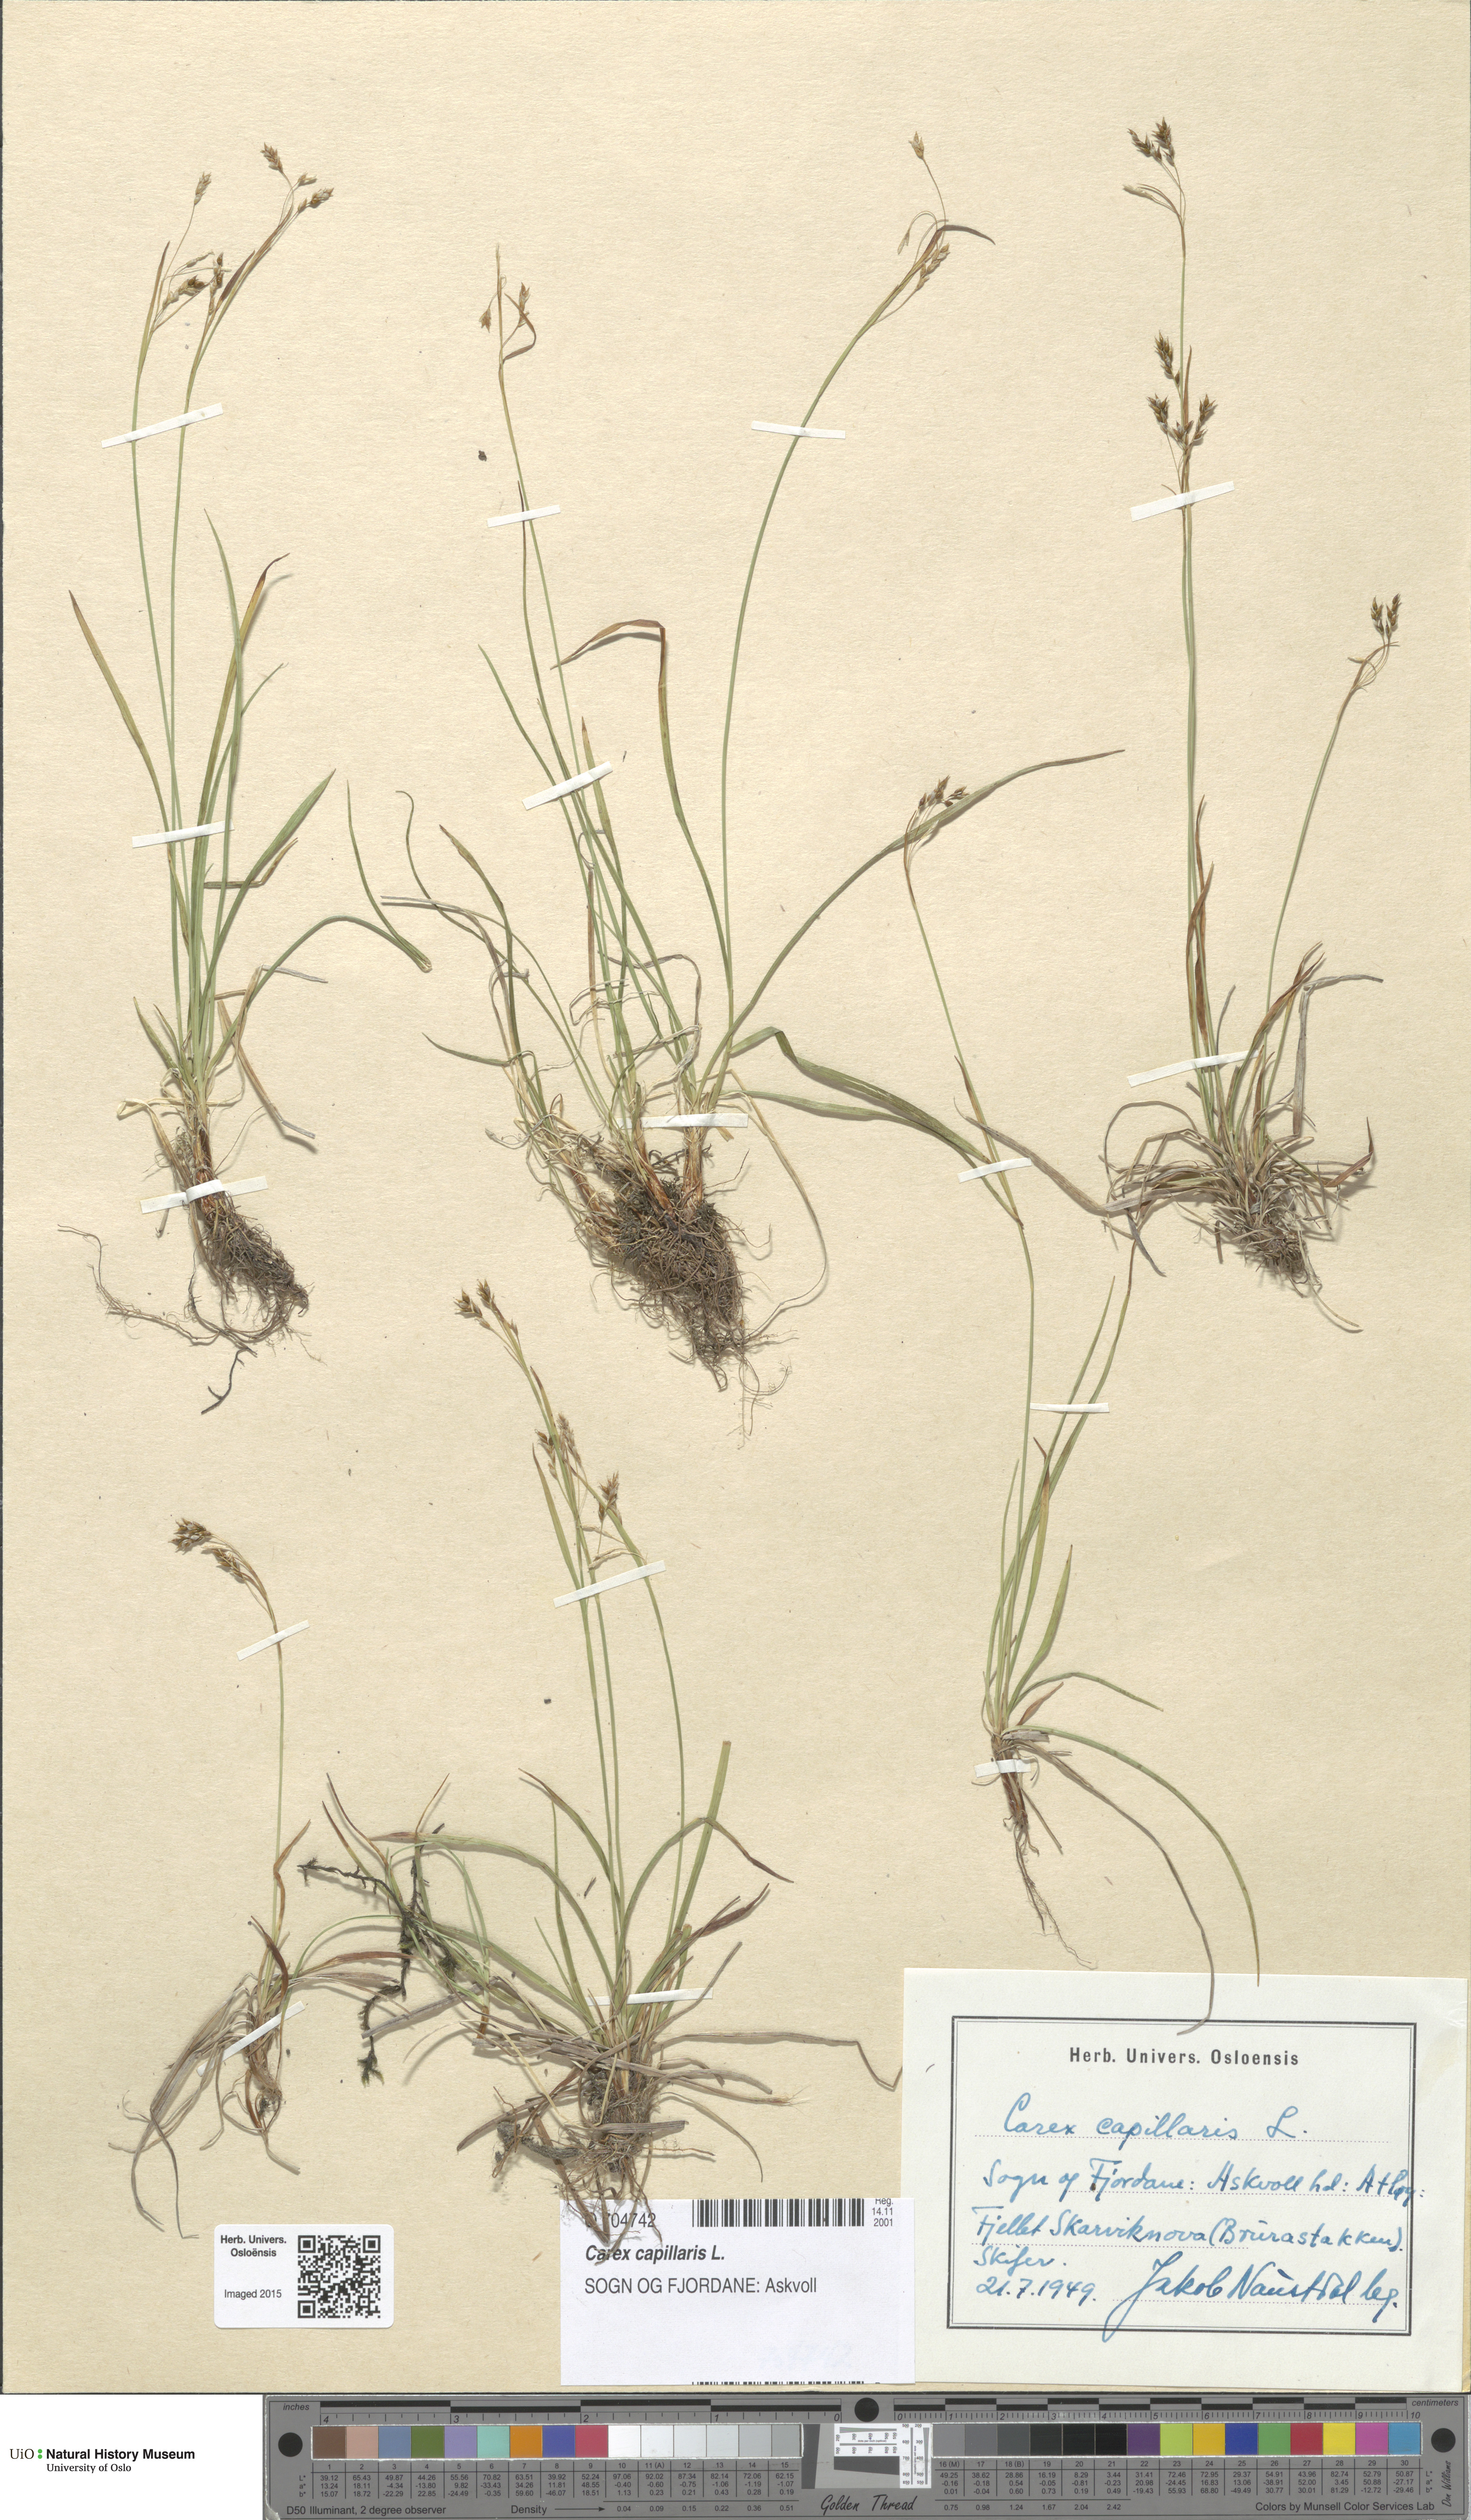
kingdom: Plantae
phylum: Tracheophyta
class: Liliopsida
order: Poales
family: Cyperaceae
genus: Carex
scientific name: Carex capillaris
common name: Hair sedge
